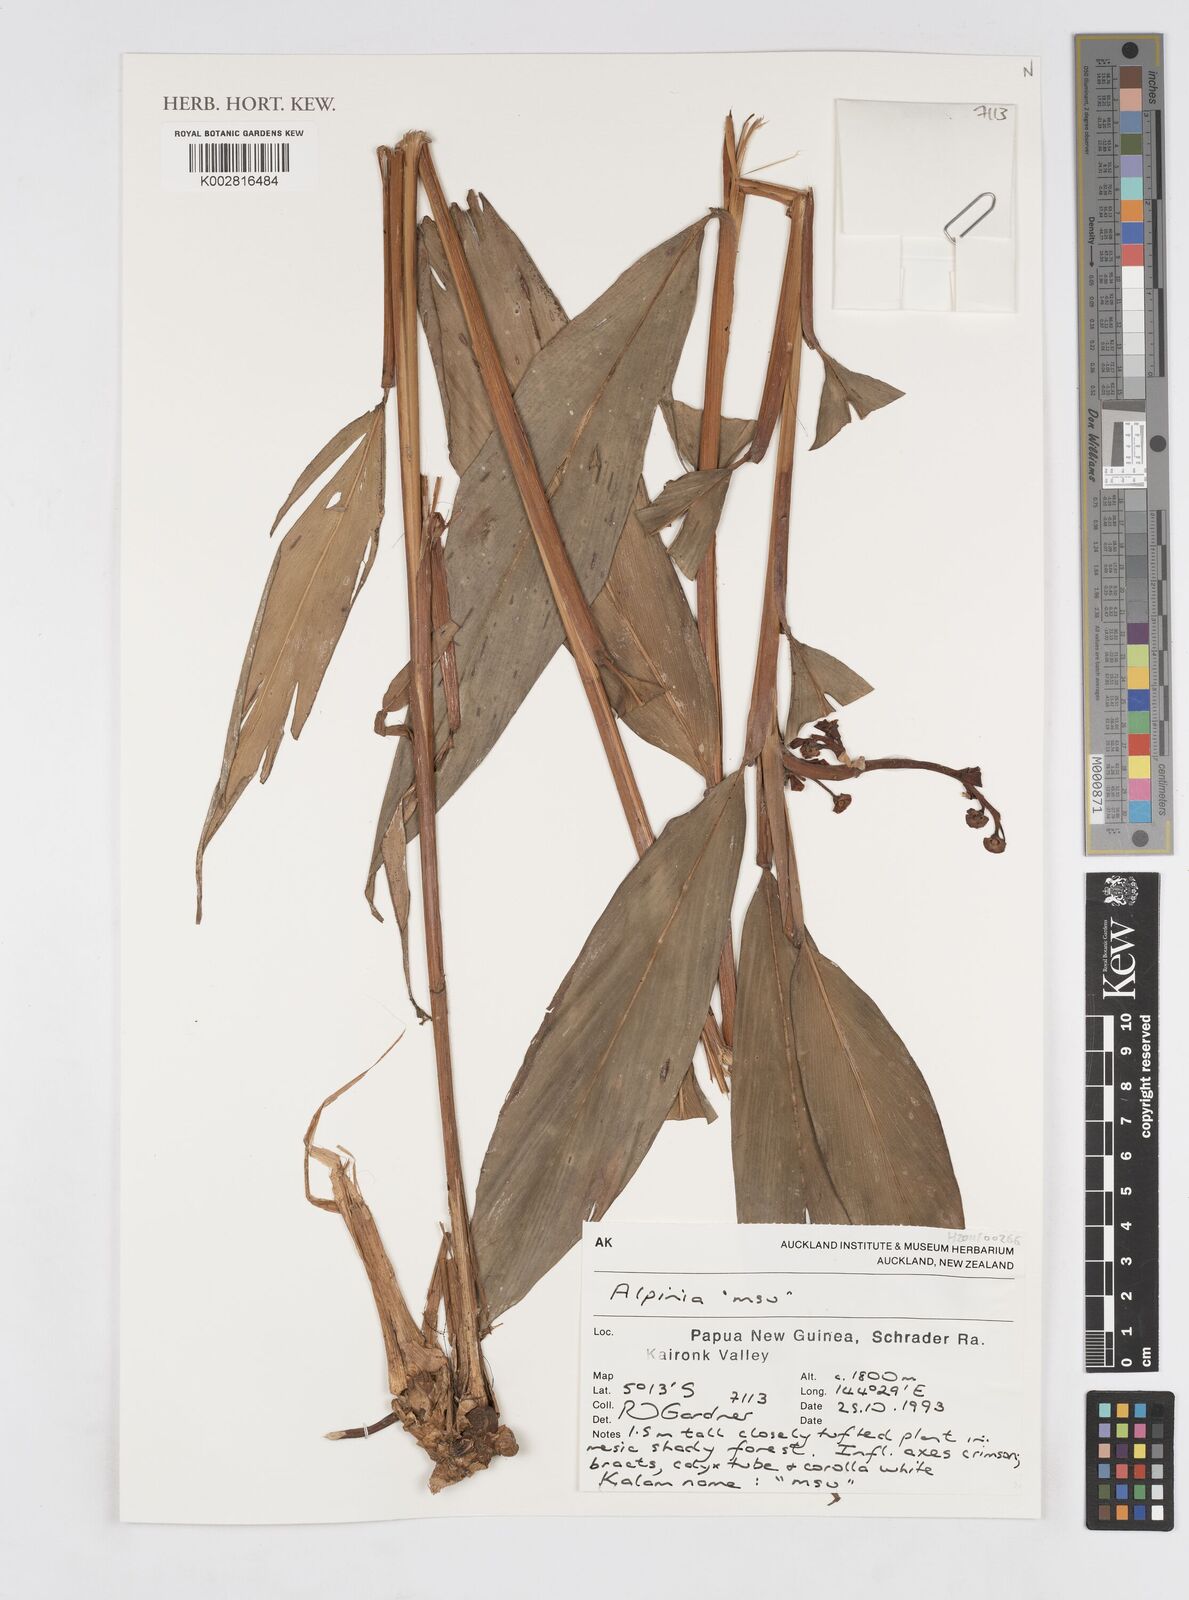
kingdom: Plantae
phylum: Tracheophyta
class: Liliopsida
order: Zingiberales
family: Zingiberaceae
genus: Alpinia
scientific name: Alpinia
